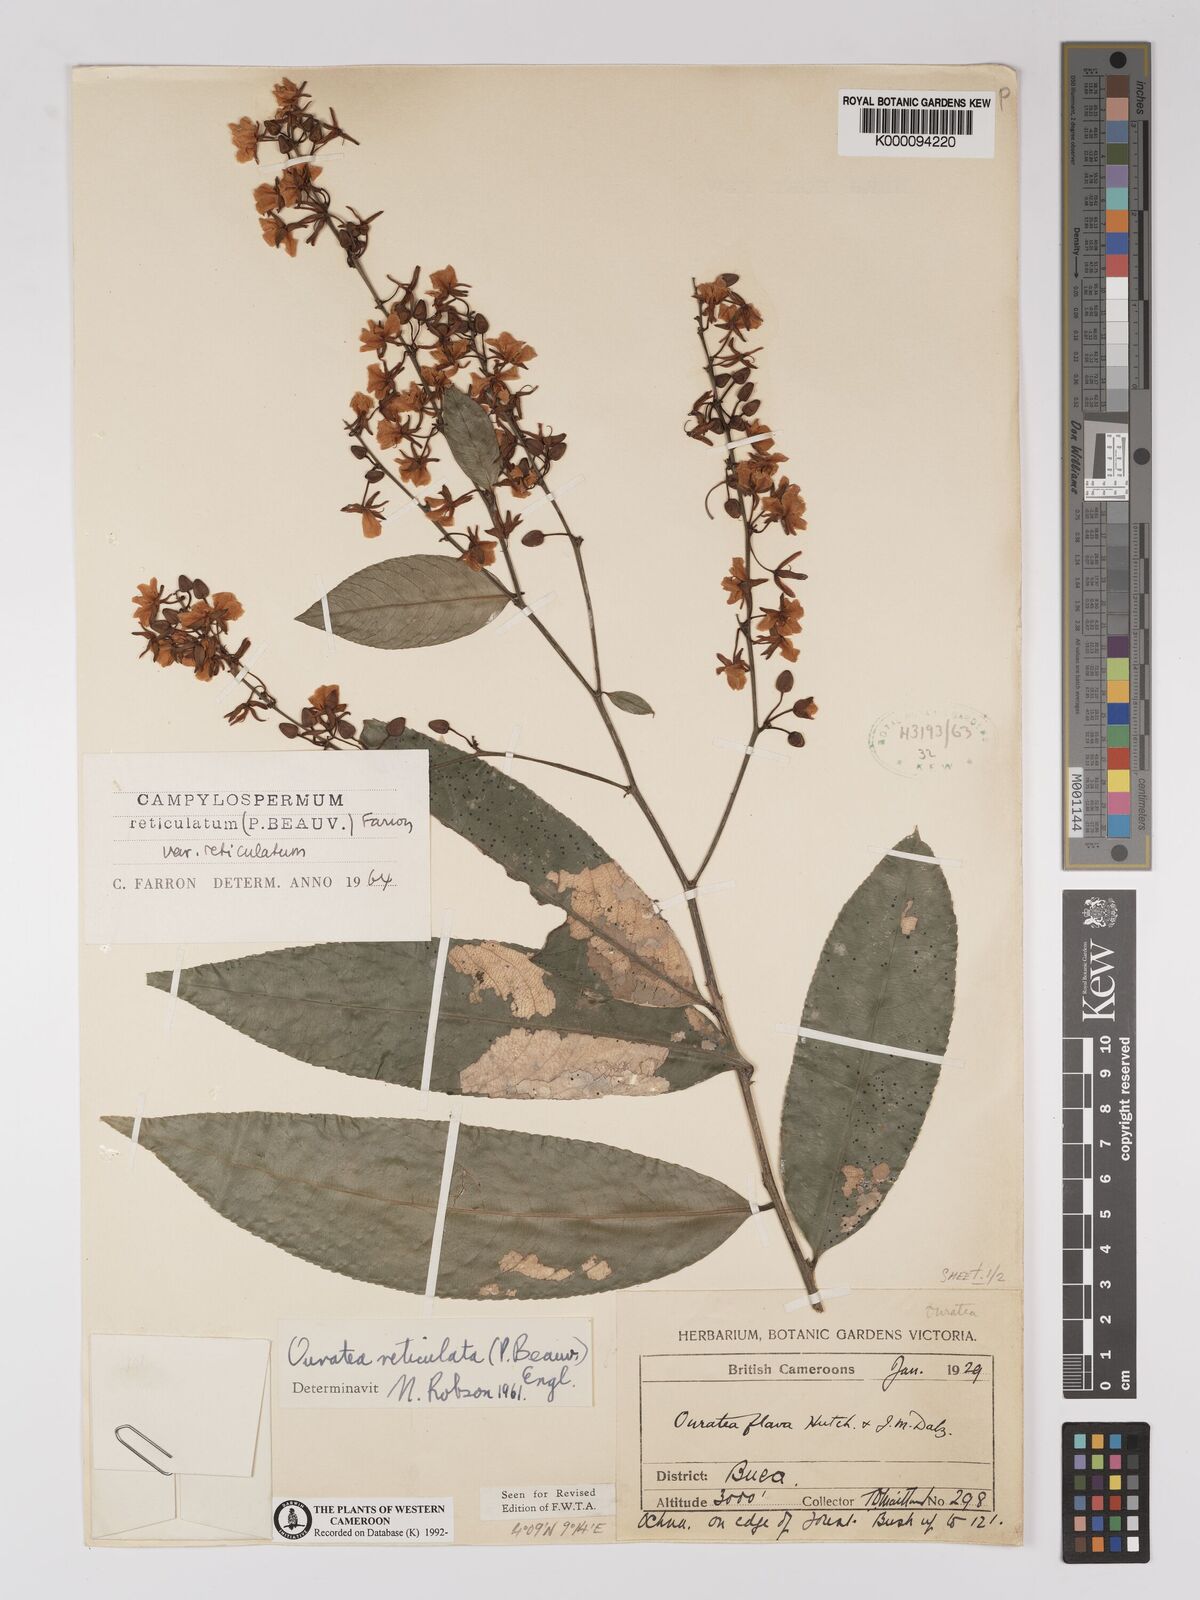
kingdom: Plantae
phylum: Tracheophyta
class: Magnoliopsida
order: Malpighiales
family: Ochnaceae
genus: Campylospermum
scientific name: Campylospermum reticulatum
